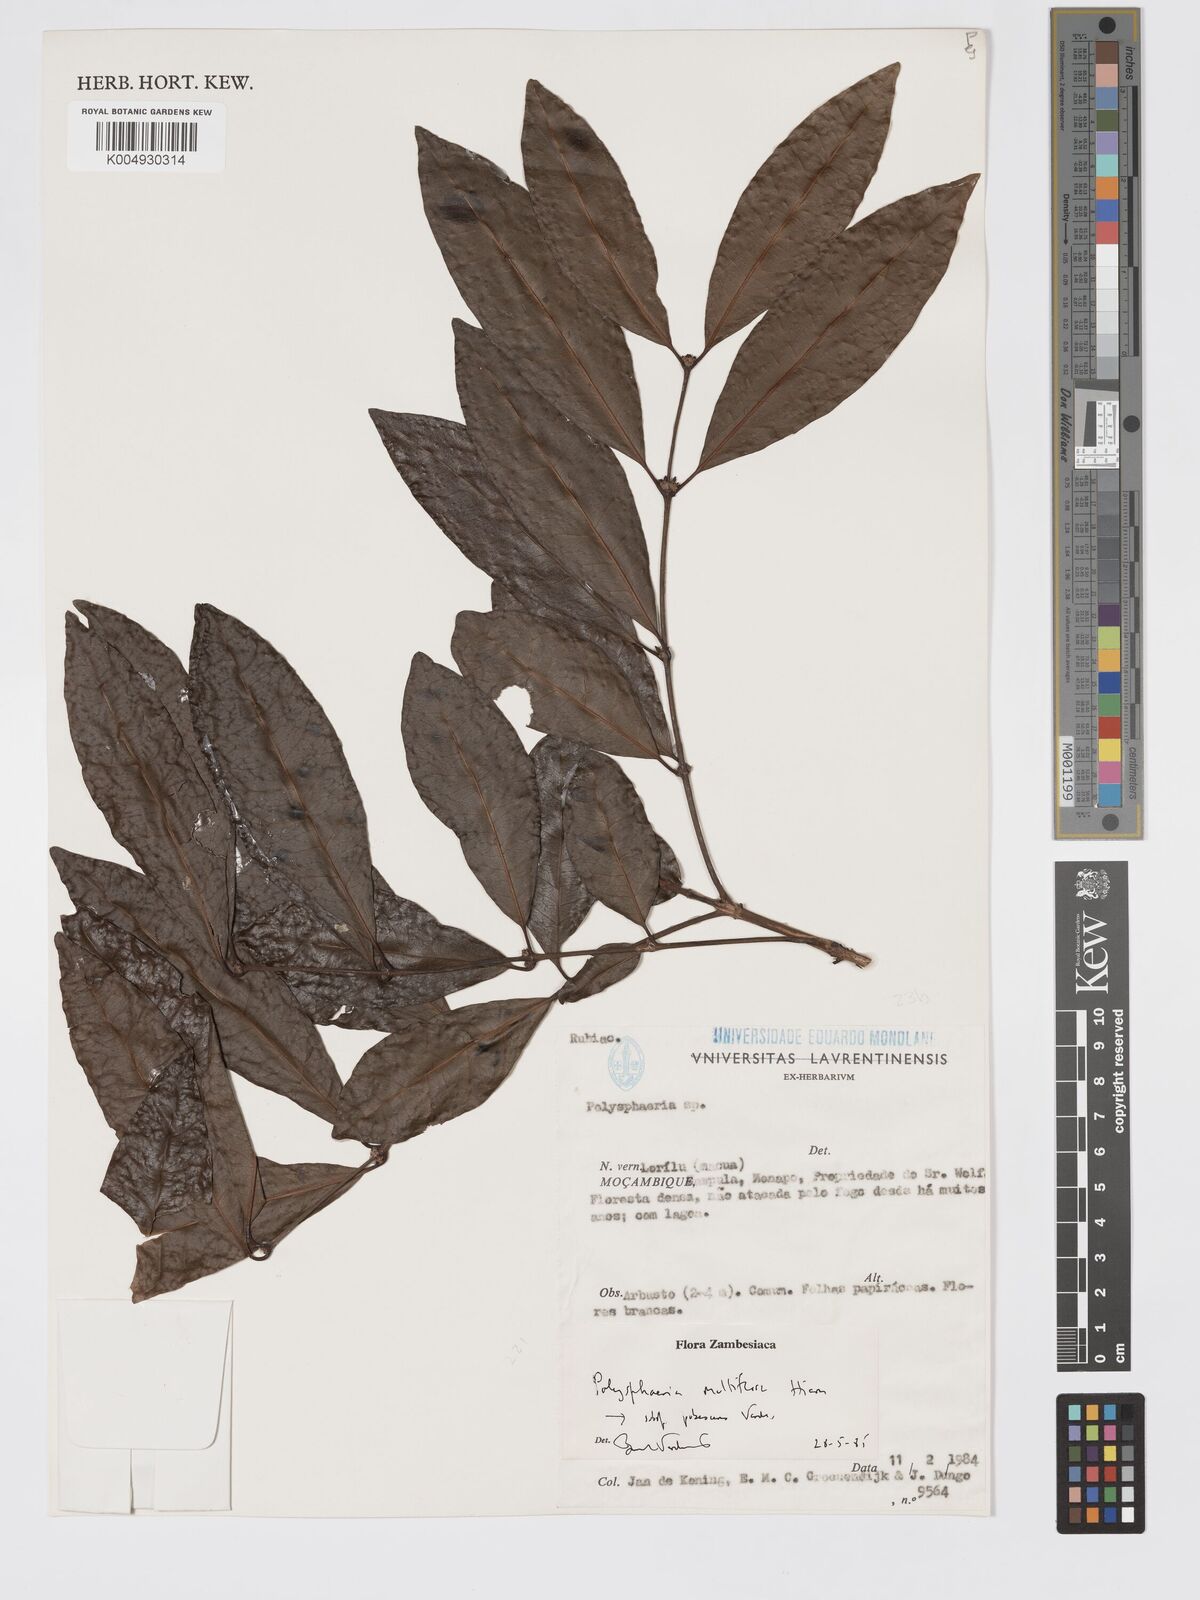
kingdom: Plantae
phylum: Tracheophyta
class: Magnoliopsida
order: Gentianales
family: Rubiaceae
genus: Polysphaeria
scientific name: Polysphaeria multiflora
